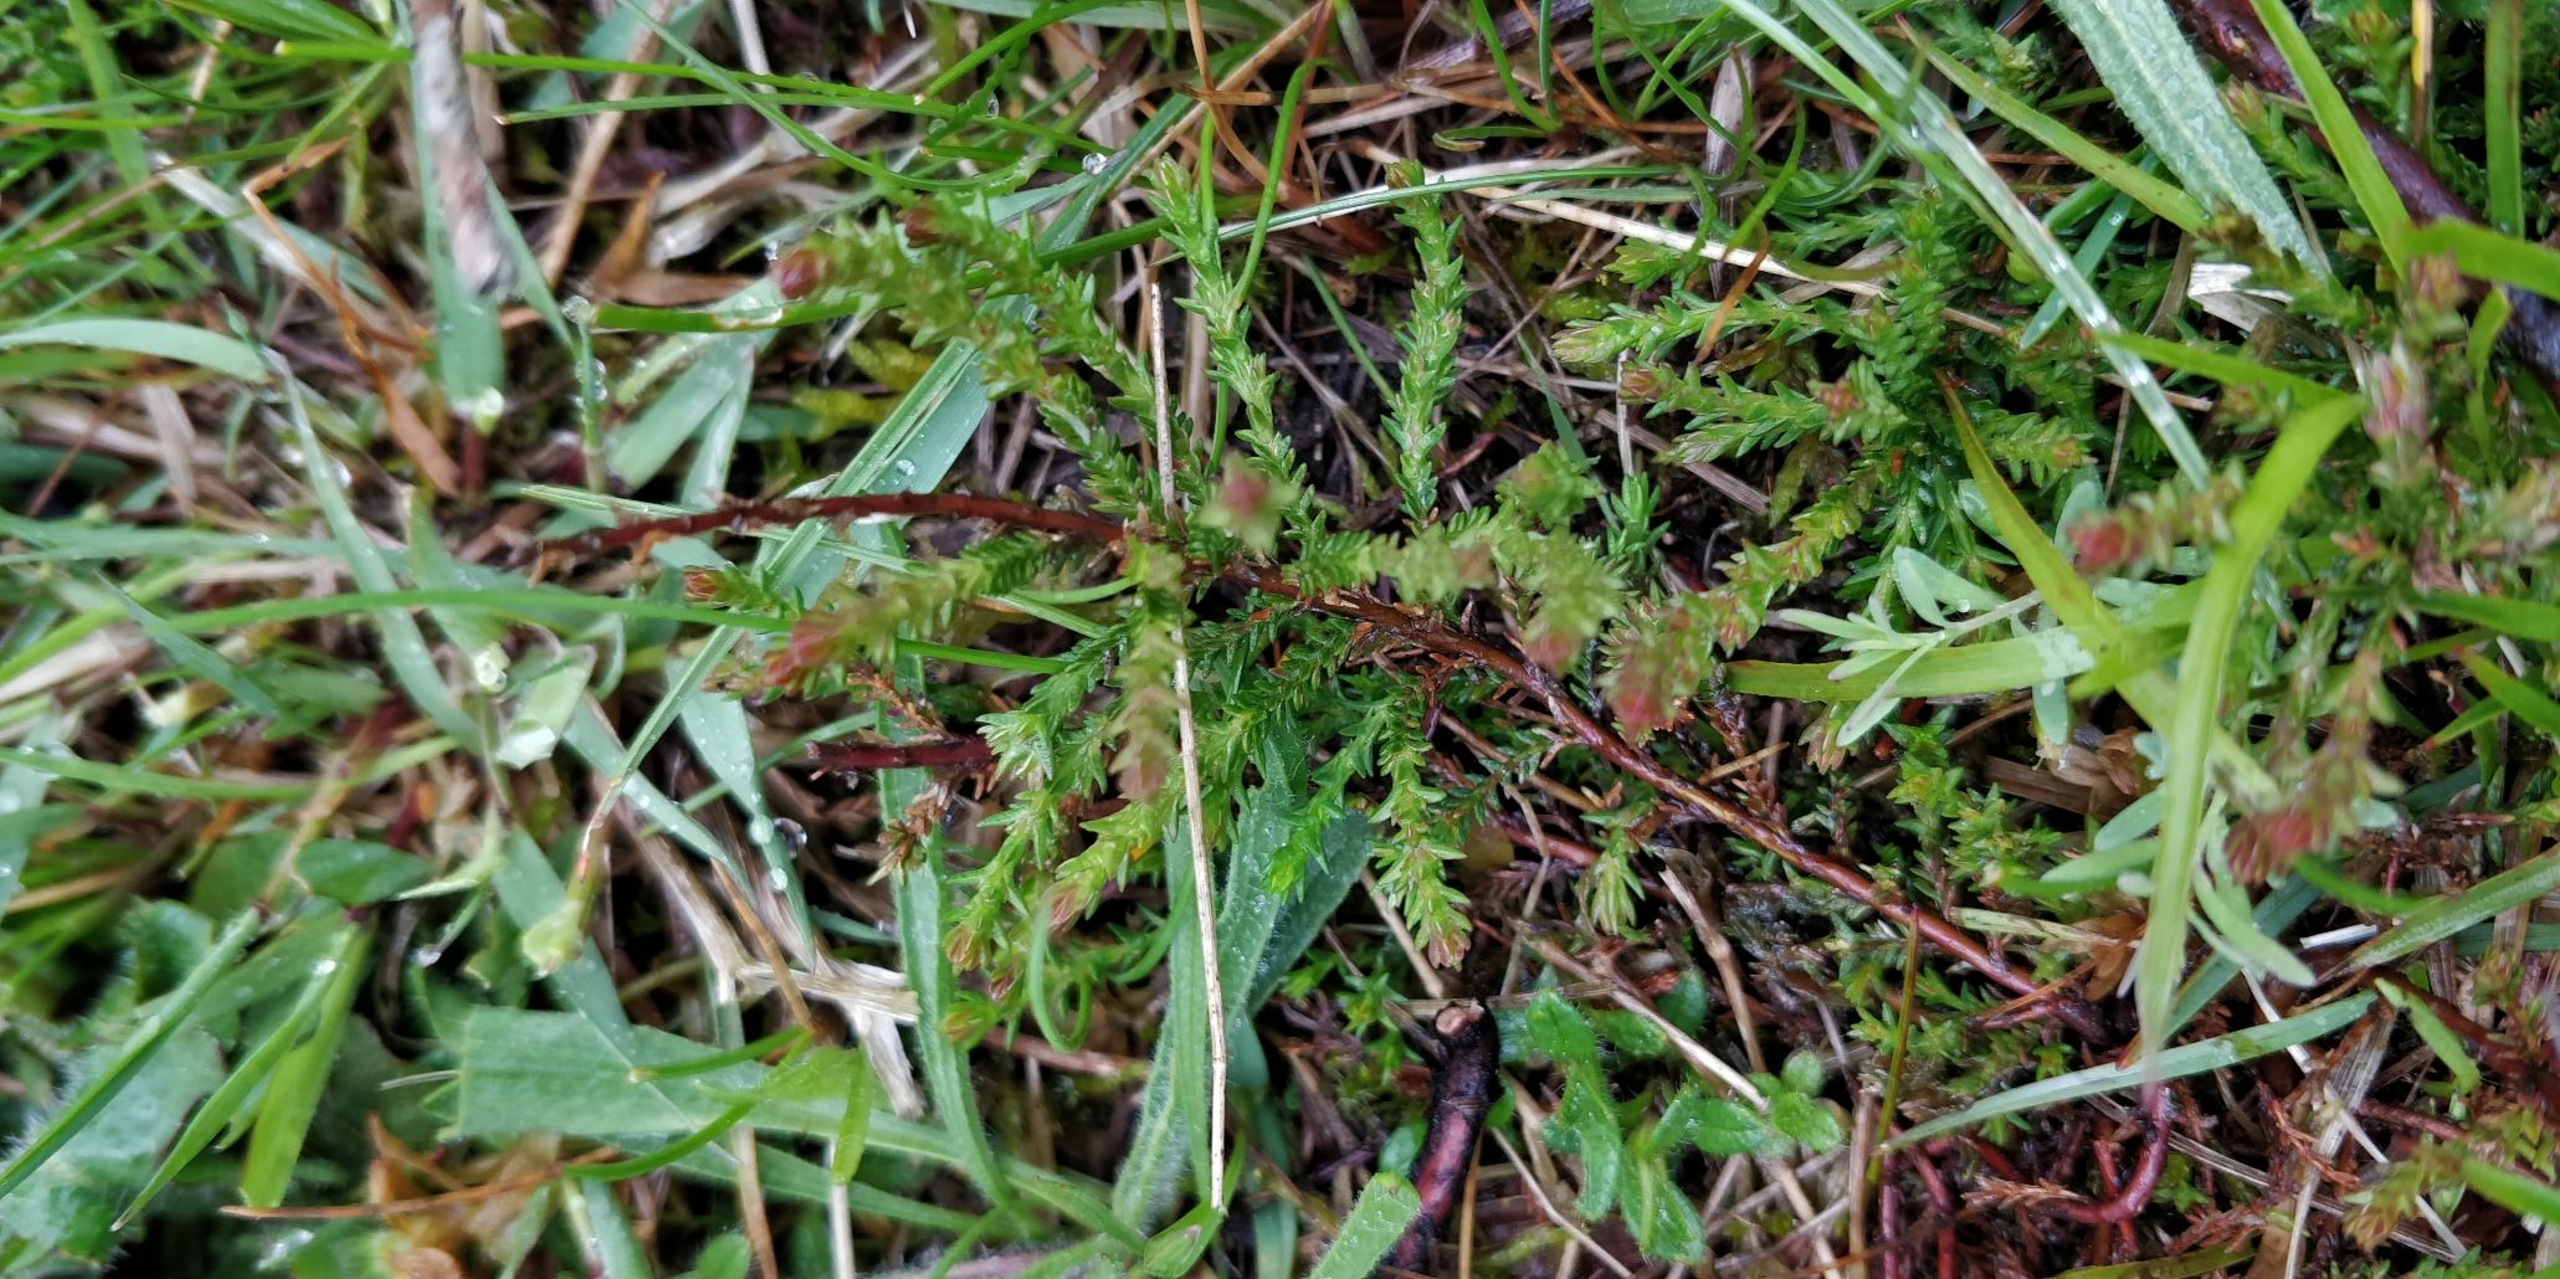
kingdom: Plantae
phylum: Tracheophyta
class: Magnoliopsida
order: Ericales
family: Ericaceae
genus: Calluna
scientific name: Calluna vulgaris
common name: Hedelyng
